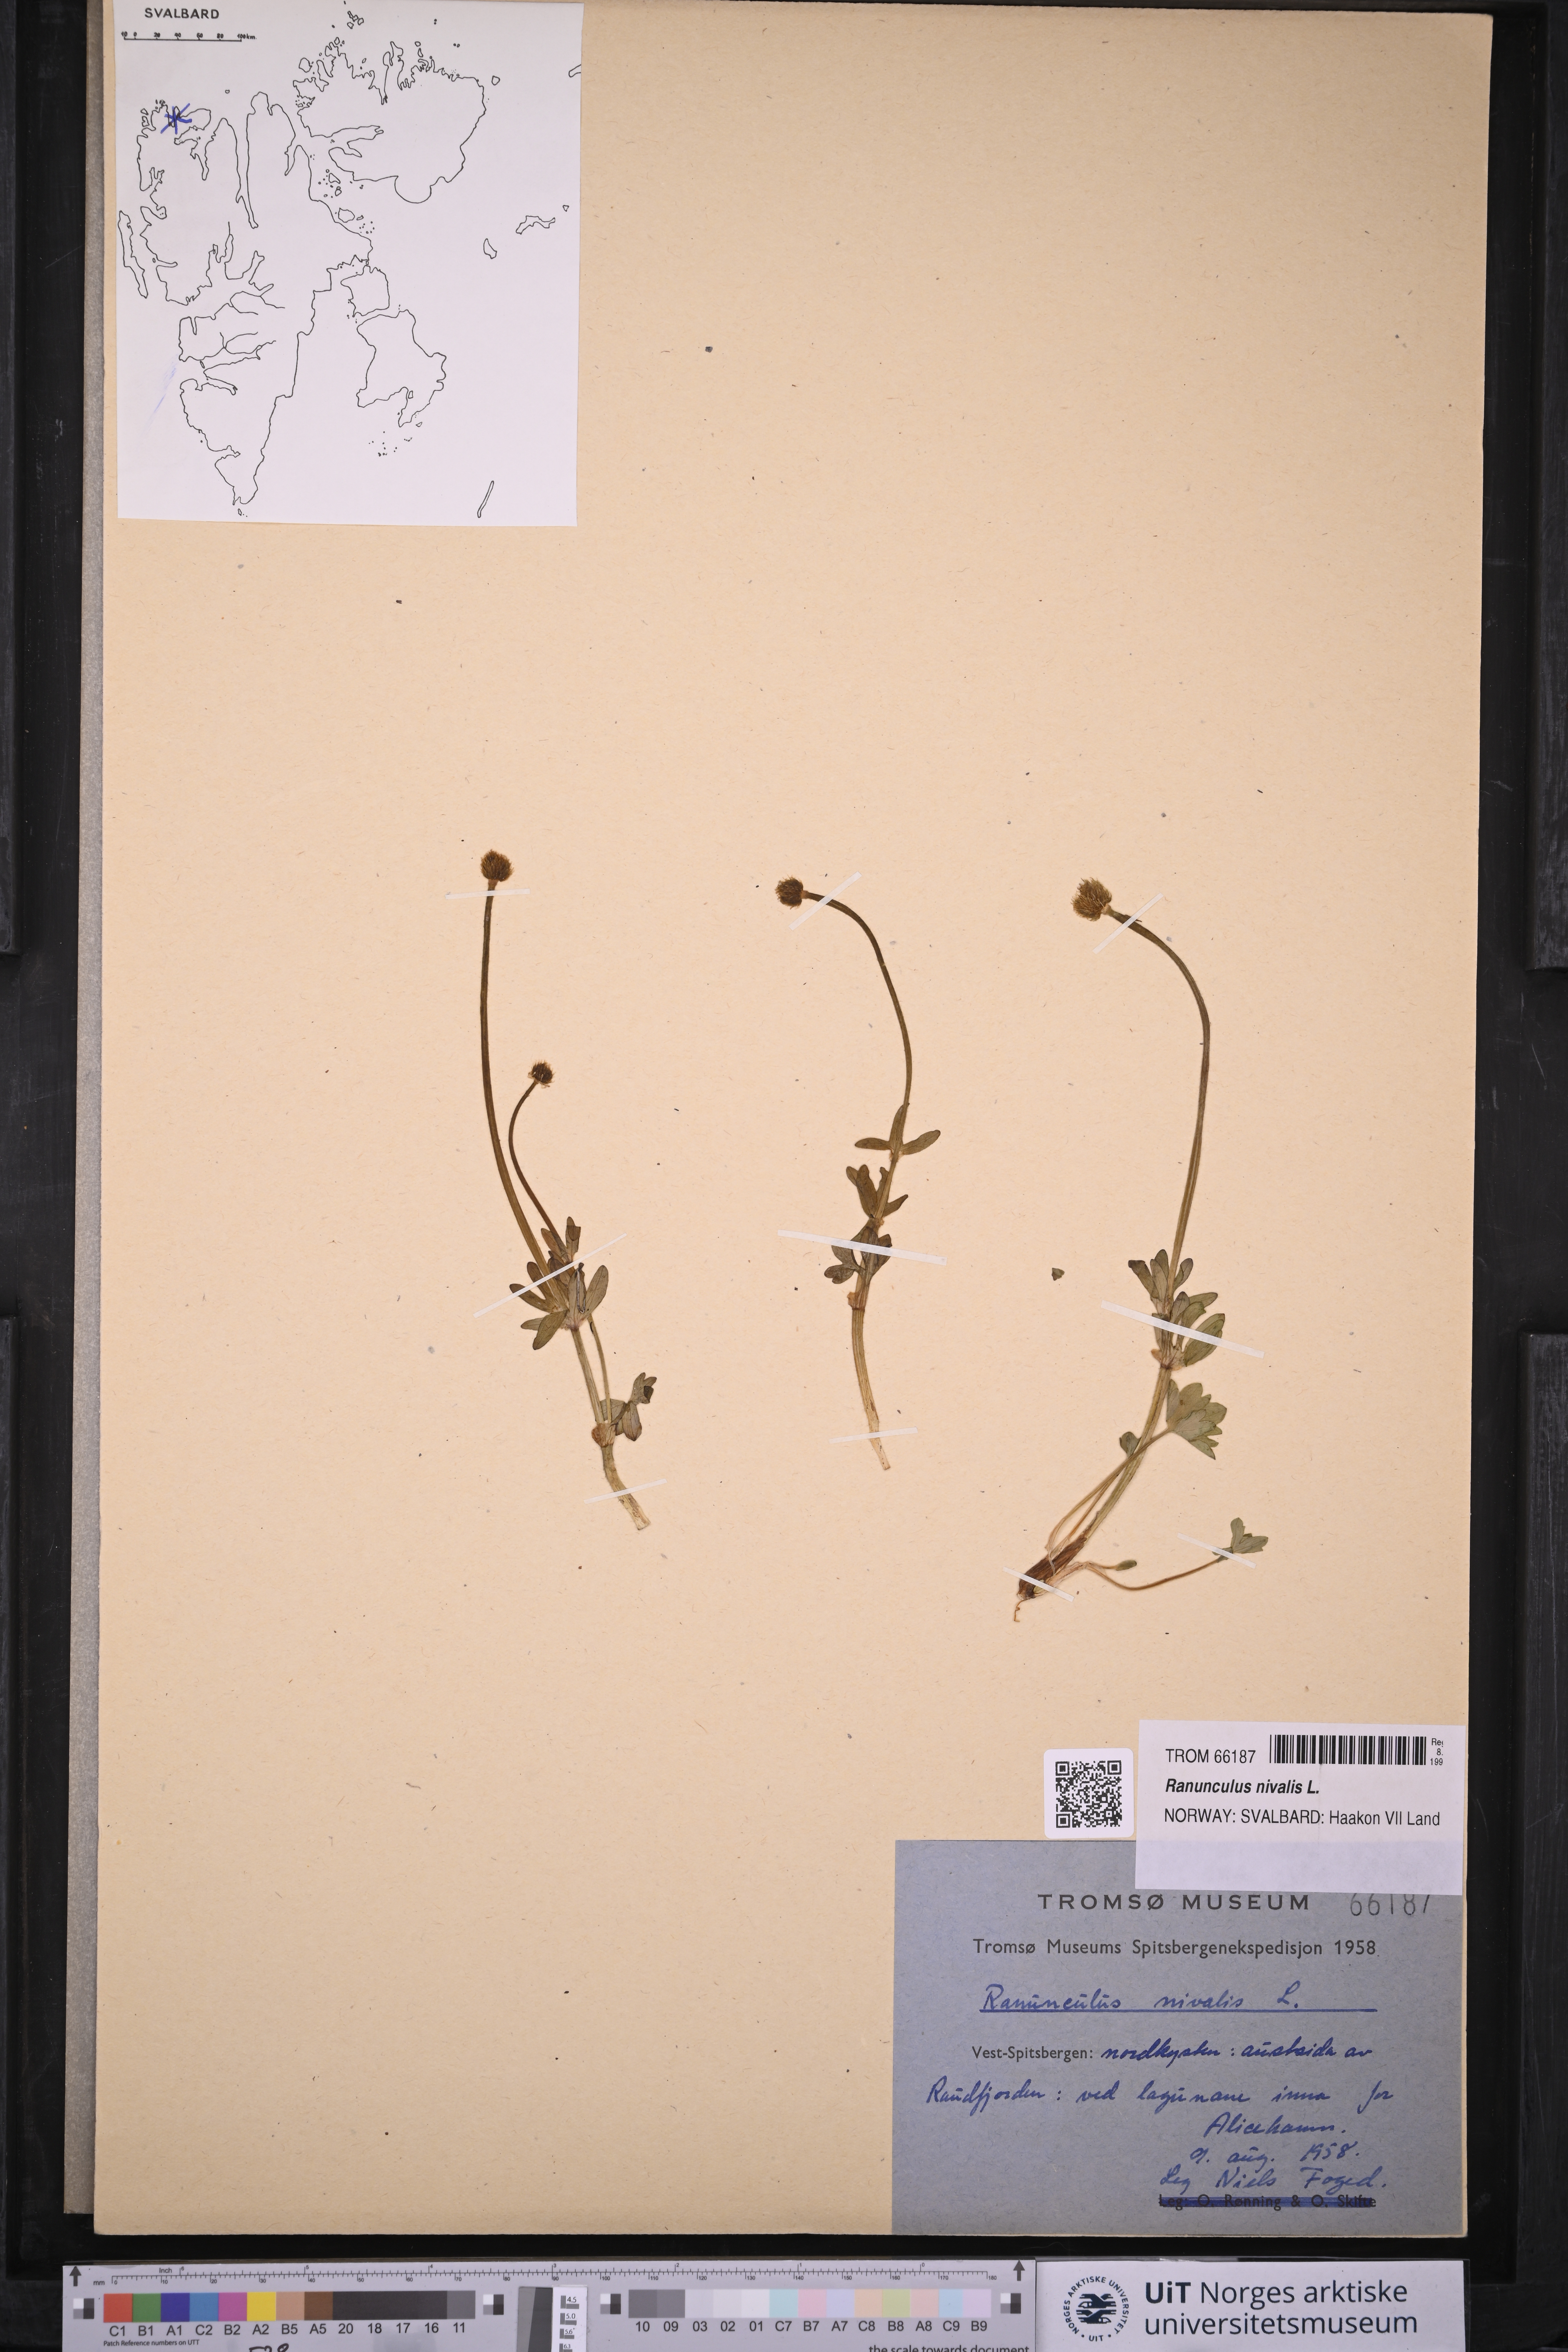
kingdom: Plantae
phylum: Tracheophyta
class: Magnoliopsida
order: Ranunculales
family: Ranunculaceae
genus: Ranunculus
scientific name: Ranunculus nivalis
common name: Snow buttercup
